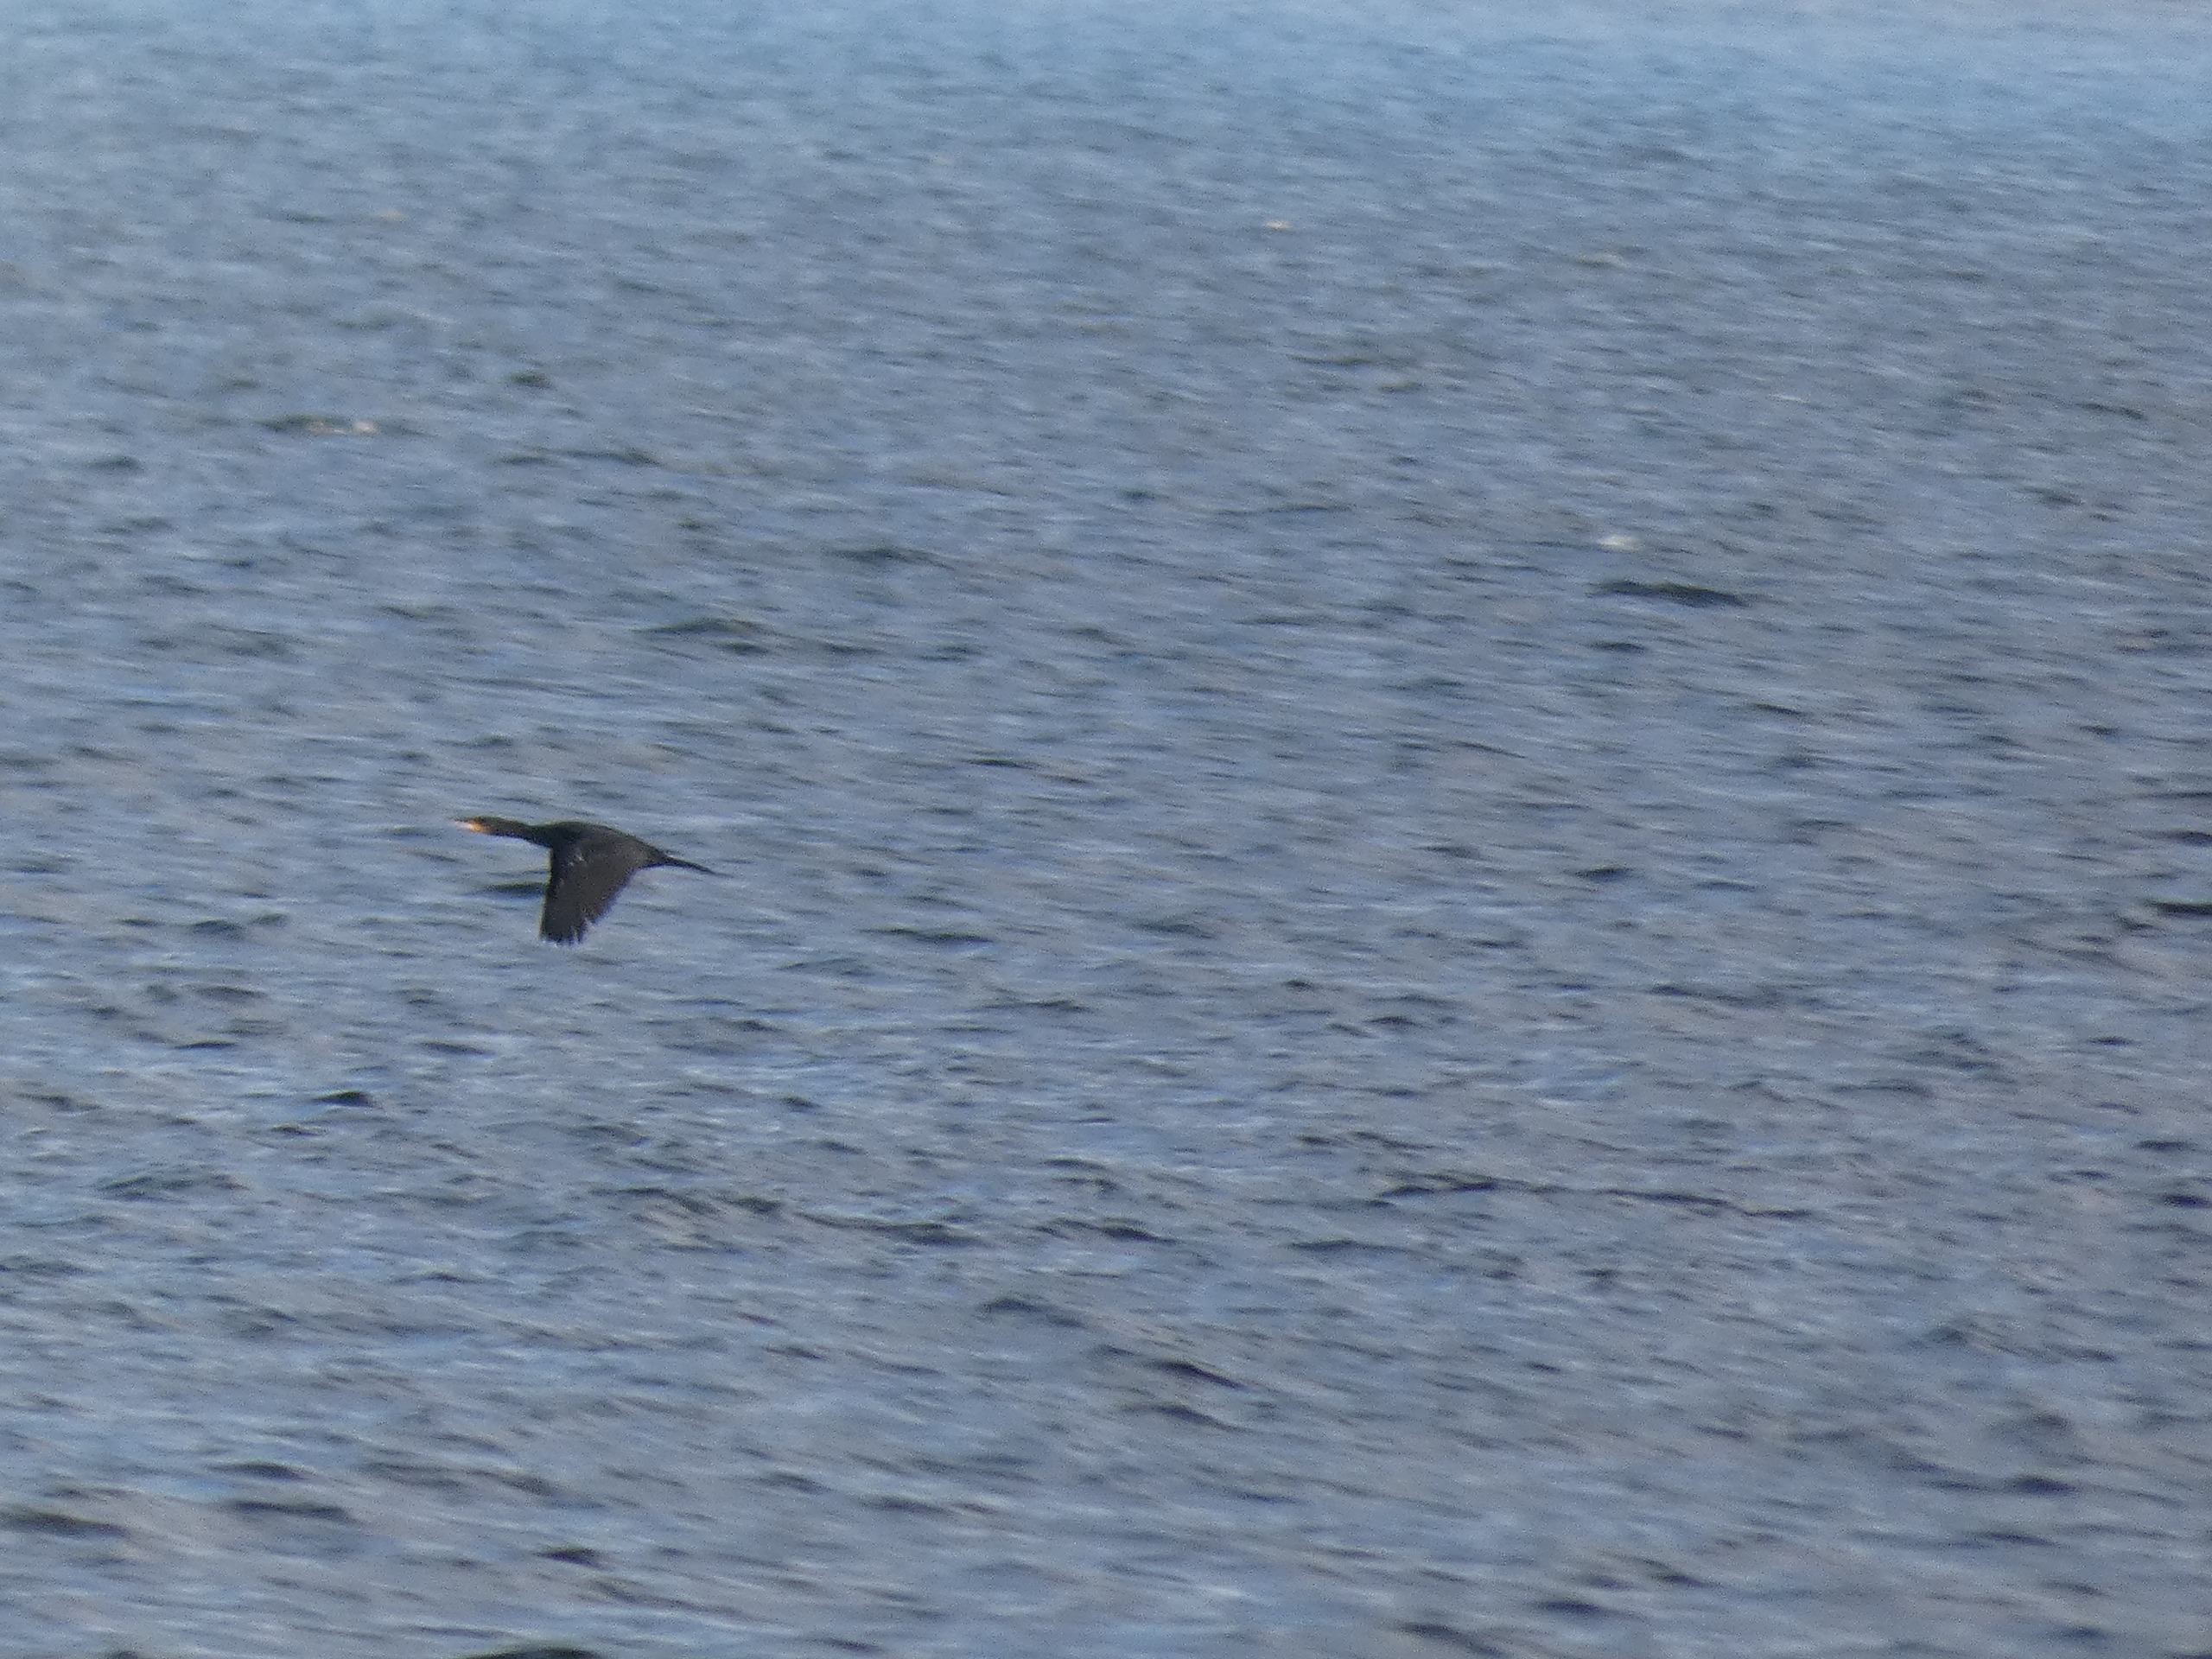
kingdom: Animalia
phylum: Chordata
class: Aves
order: Suliformes
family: Phalacrocoracidae
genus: Phalacrocorax
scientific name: Phalacrocorax carbo
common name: Skarv
